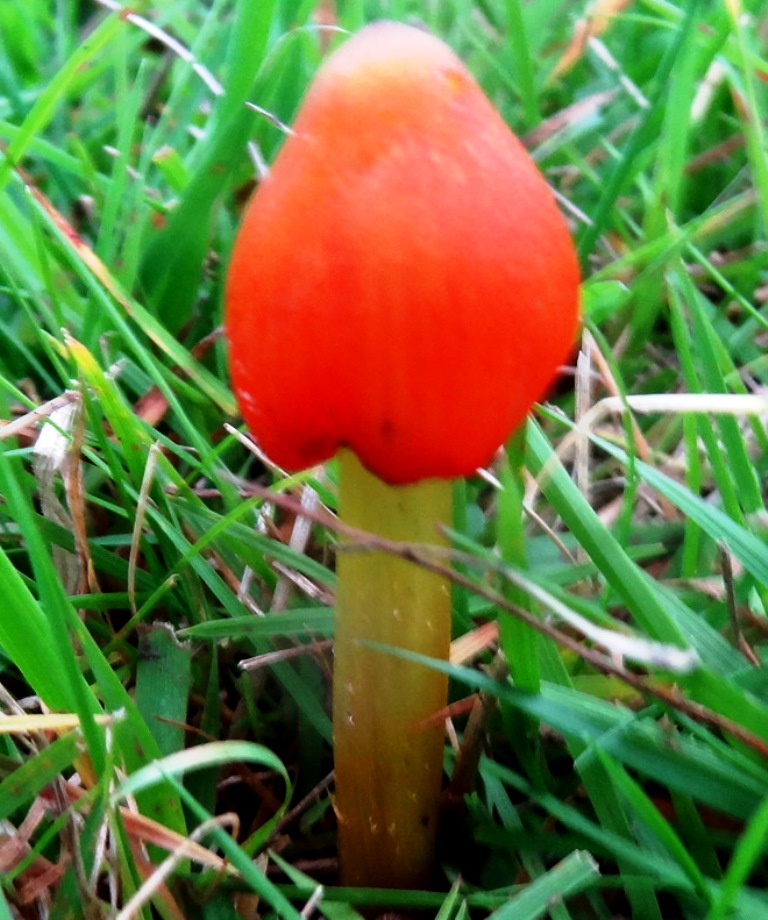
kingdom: Fungi
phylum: Basidiomycota
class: Agaricomycetes
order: Agaricales
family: Hygrophoraceae
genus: Hygrocybe
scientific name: Hygrocybe conica
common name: kegle-vokshat
